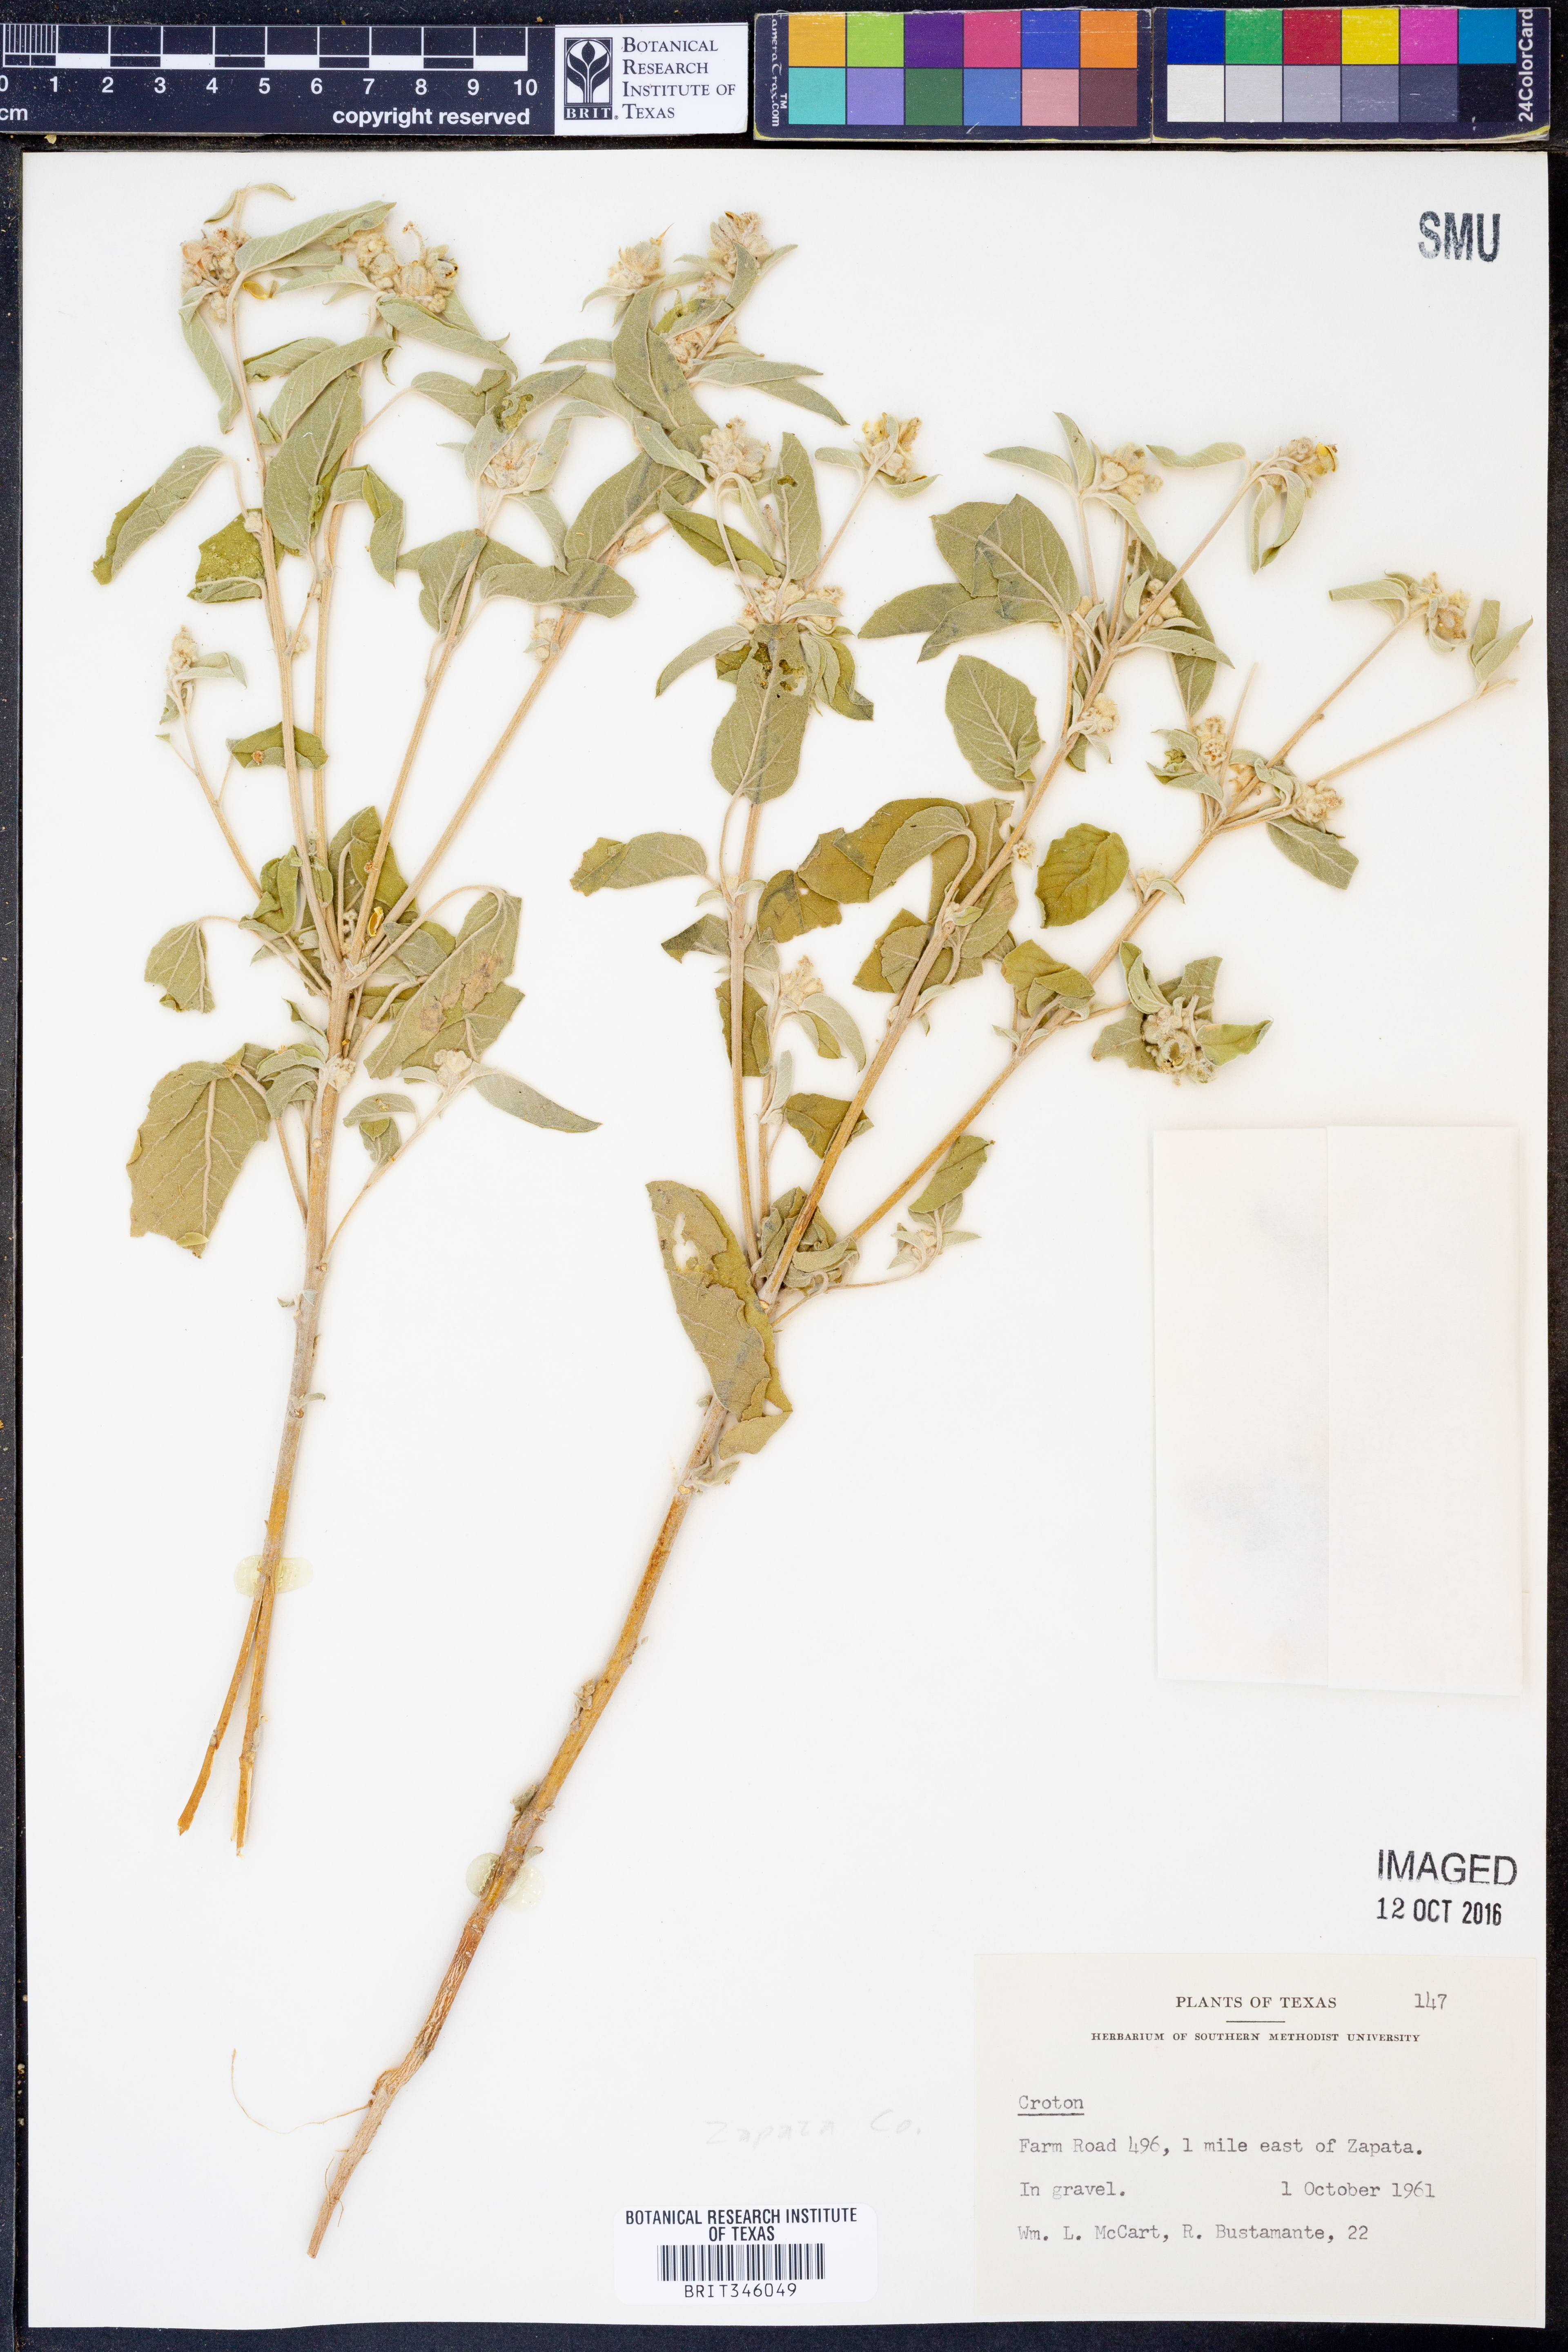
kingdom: Plantae
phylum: Tracheophyta
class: Magnoliopsida
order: Malpighiales
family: Euphorbiaceae
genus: Croton
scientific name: Croton
